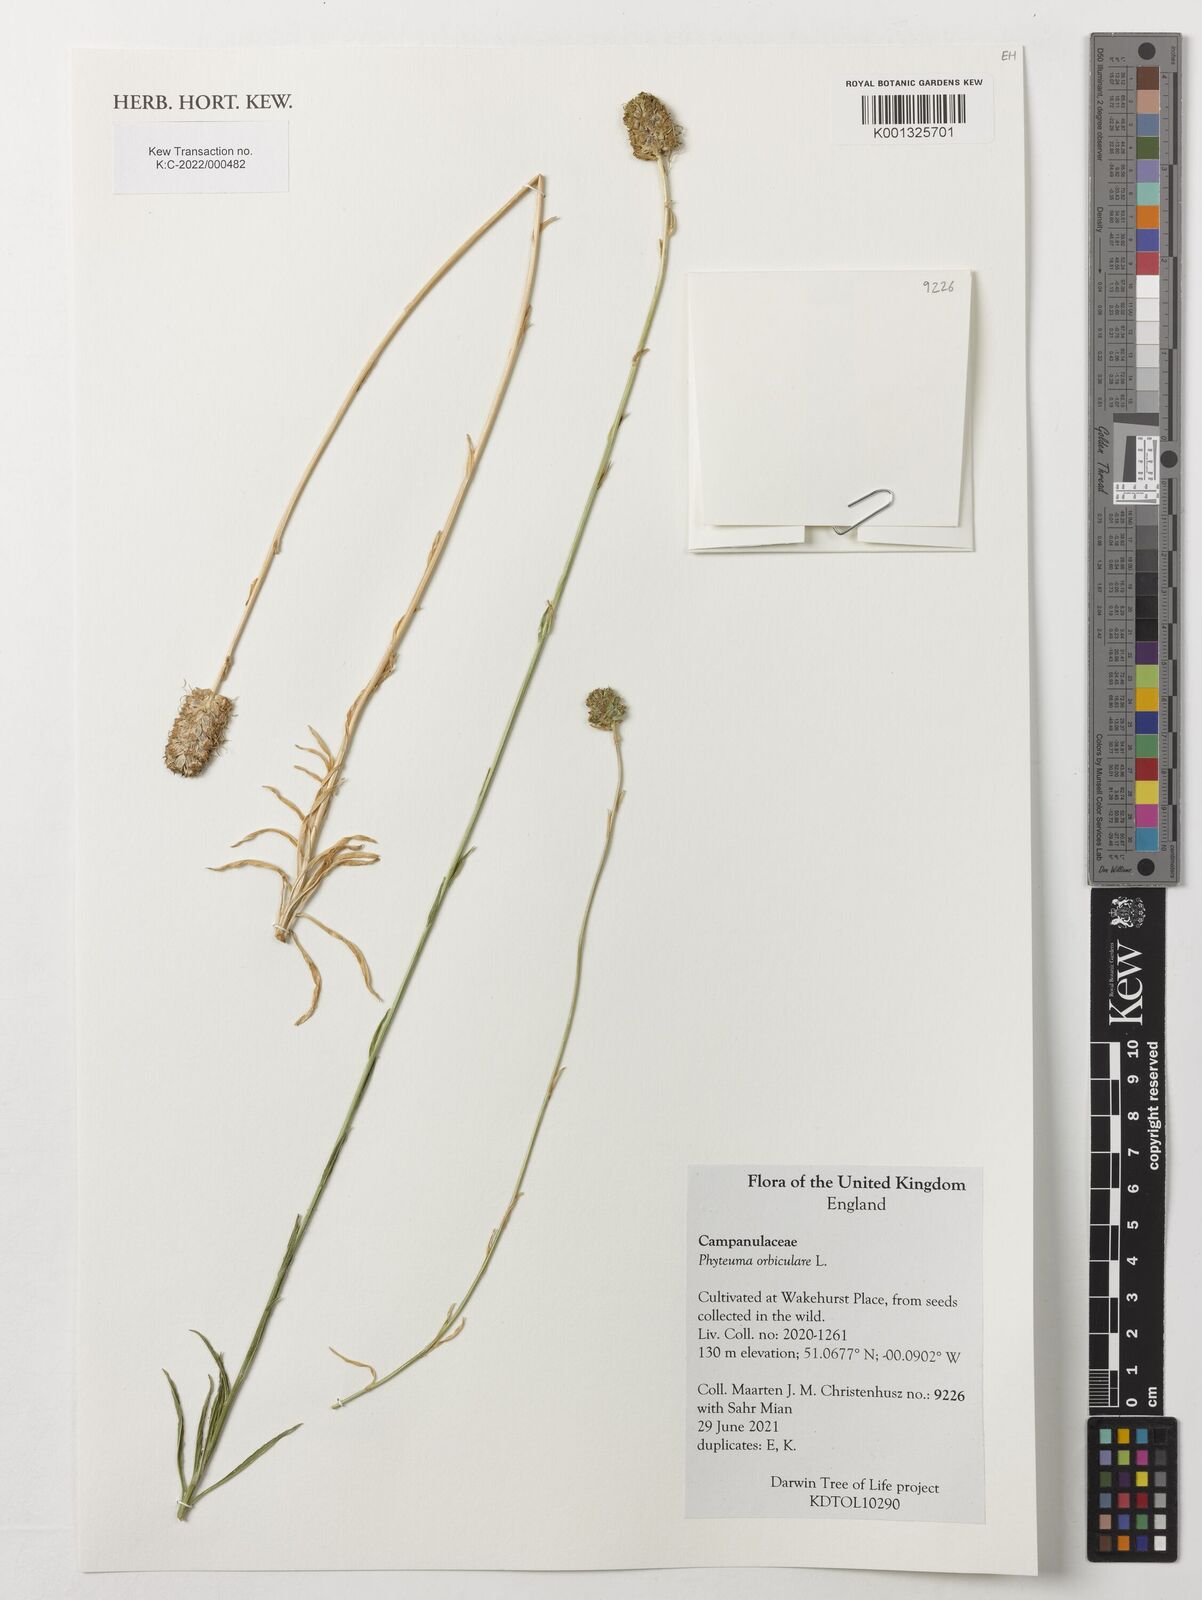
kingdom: Plantae
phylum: Tracheophyta
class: Magnoliopsida
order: Asterales
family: Campanulaceae
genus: Phyteuma
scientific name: Phyteuma orbiculare
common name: Round-headed rampion
